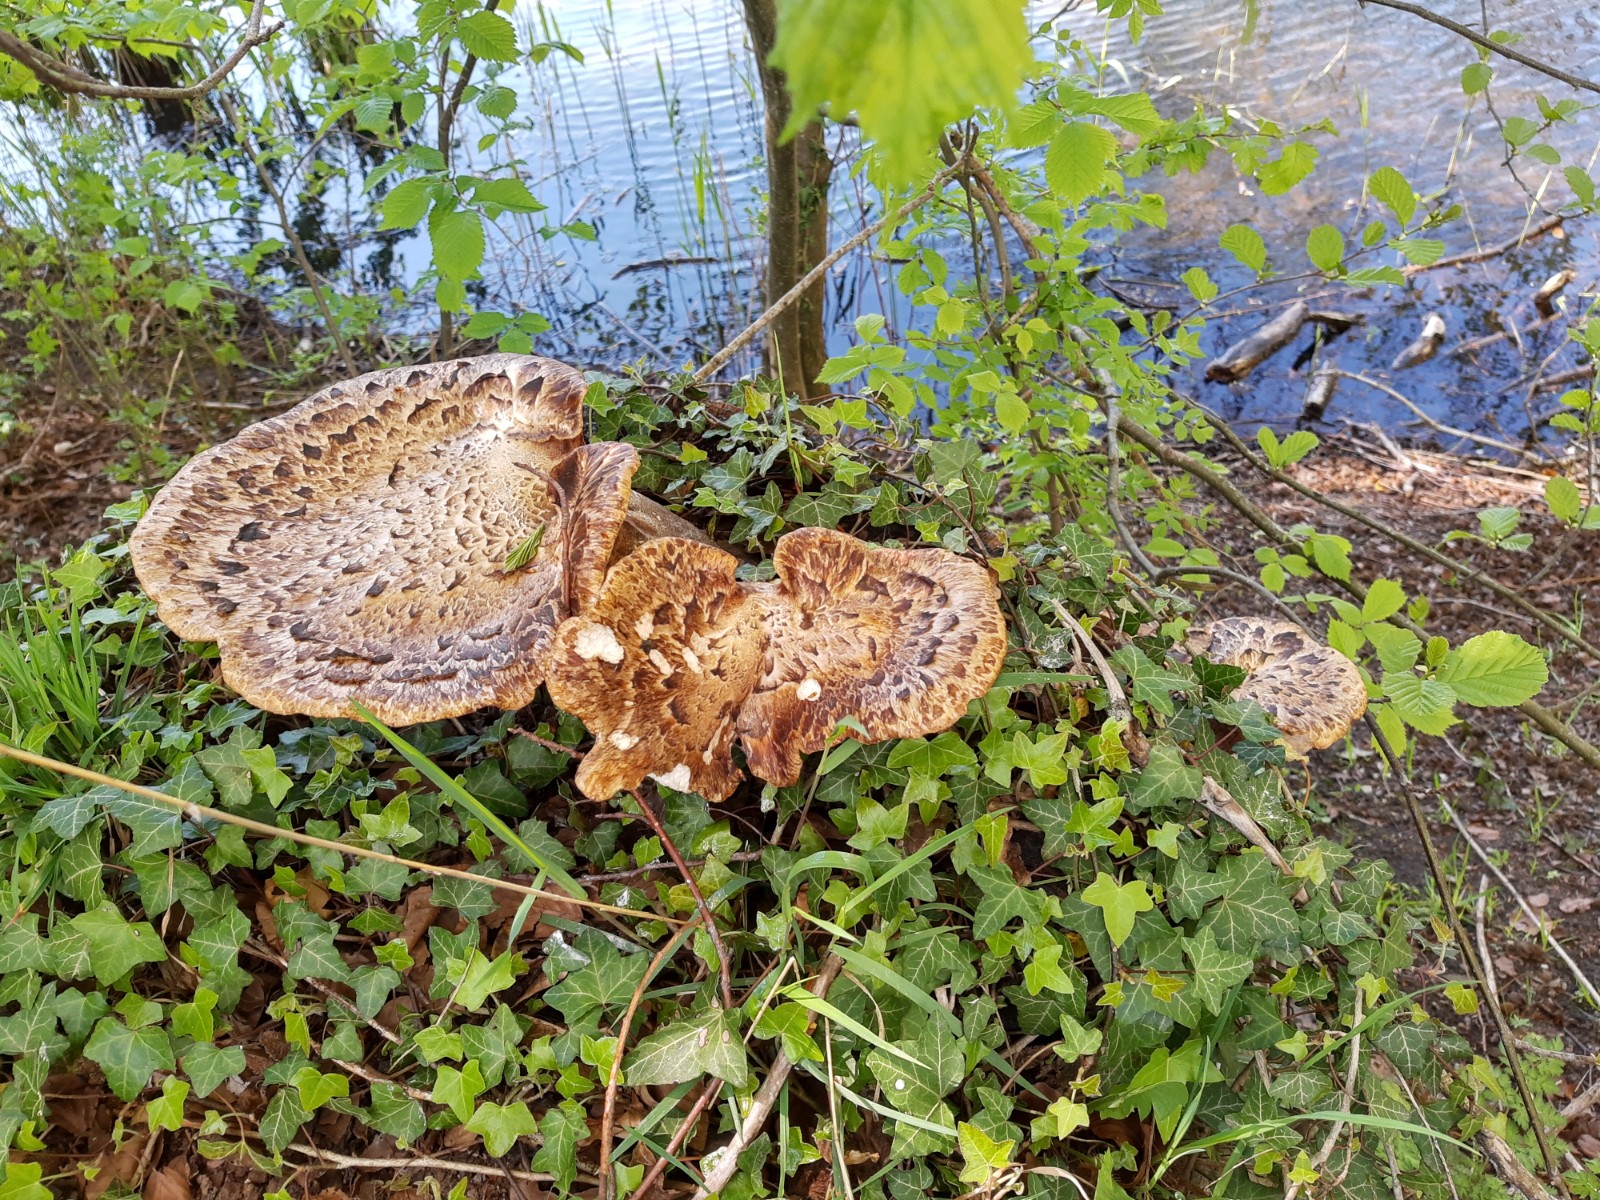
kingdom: Fungi
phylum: Basidiomycota
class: Agaricomycetes
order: Polyporales
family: Polyporaceae
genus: Cerioporus
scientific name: Cerioporus squamosus
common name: skællet stilkporesvamp
